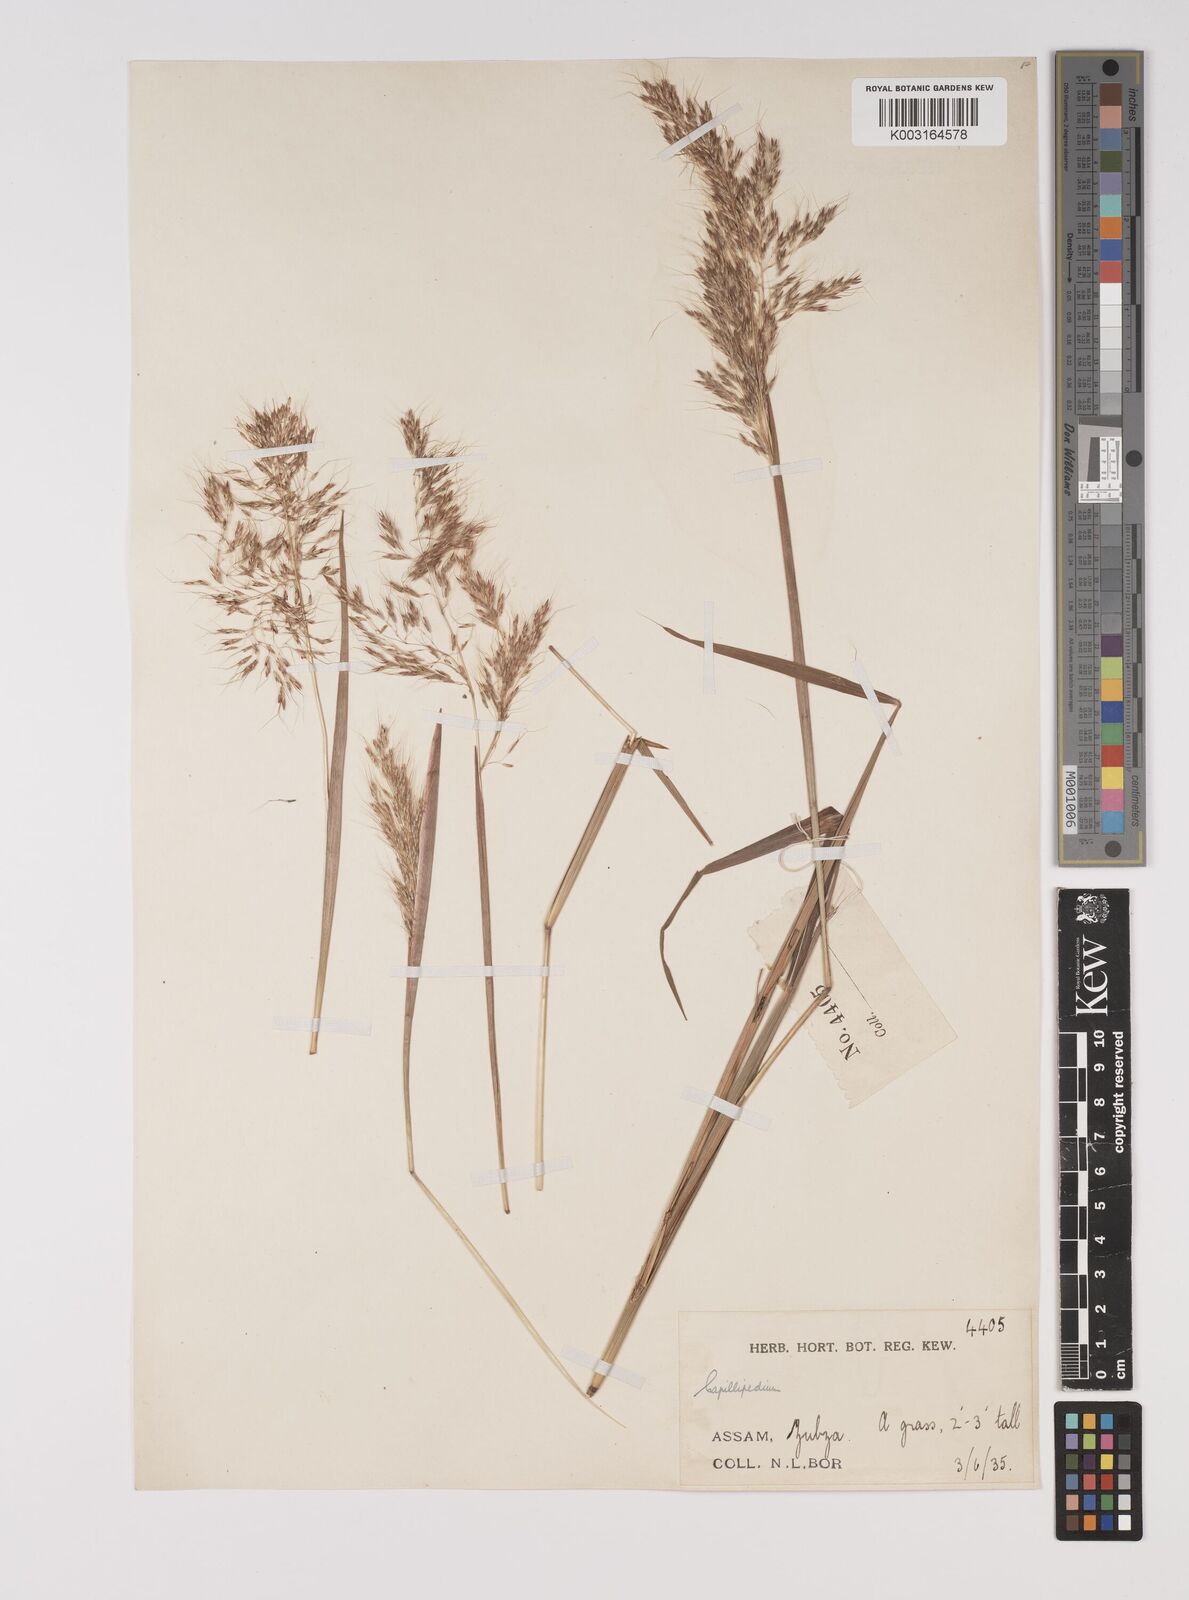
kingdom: Plantae
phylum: Tracheophyta
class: Liliopsida
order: Poales
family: Poaceae
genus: Capillipedium
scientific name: Capillipedium spicigerum
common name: Scented-top grass
